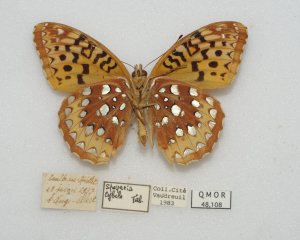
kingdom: Animalia
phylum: Arthropoda
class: Insecta
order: Lepidoptera
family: Nymphalidae
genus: Speyeria
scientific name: Speyeria cybele
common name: Great Spangled Fritillary
